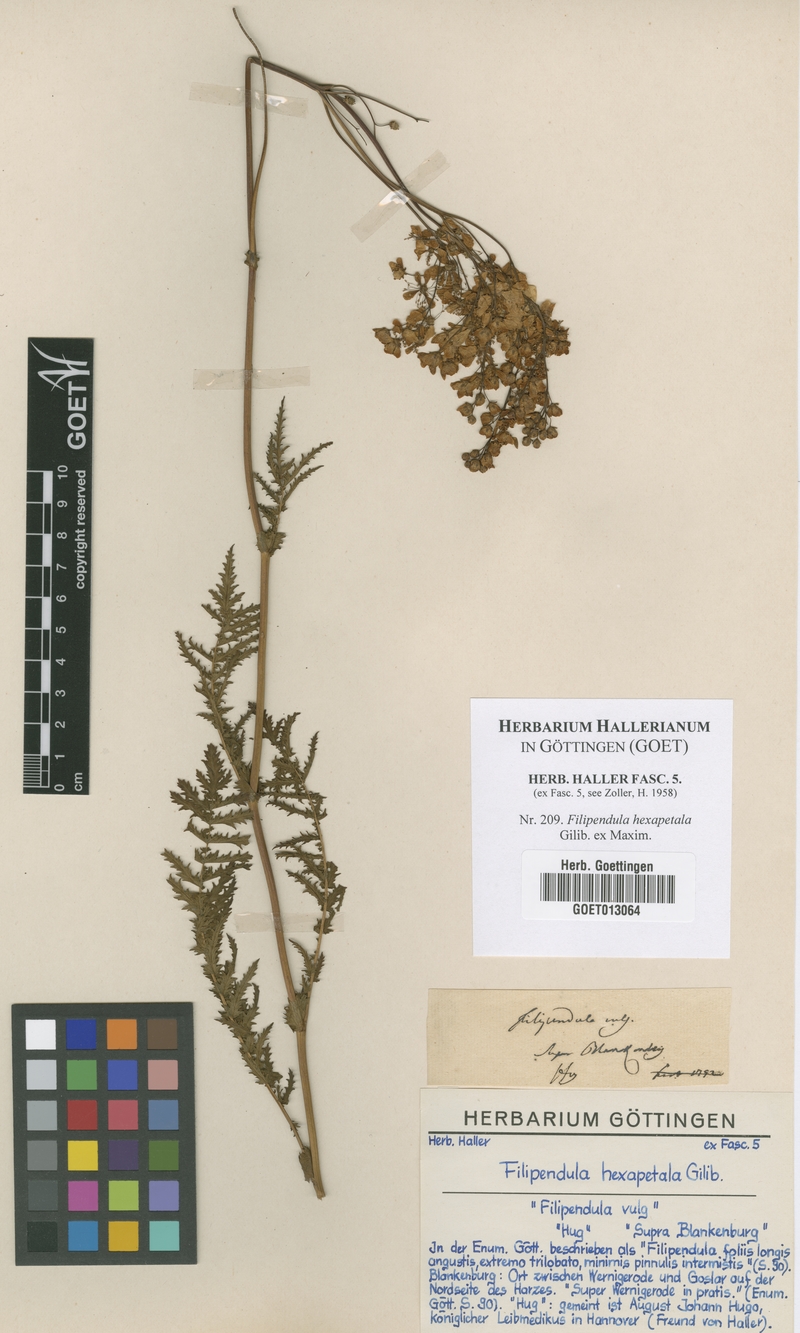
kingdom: Plantae
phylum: Tracheophyta
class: Magnoliopsida
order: Rosales
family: Rosaceae
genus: Filipendula
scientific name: Filipendula vulgaris
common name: Dropwort
